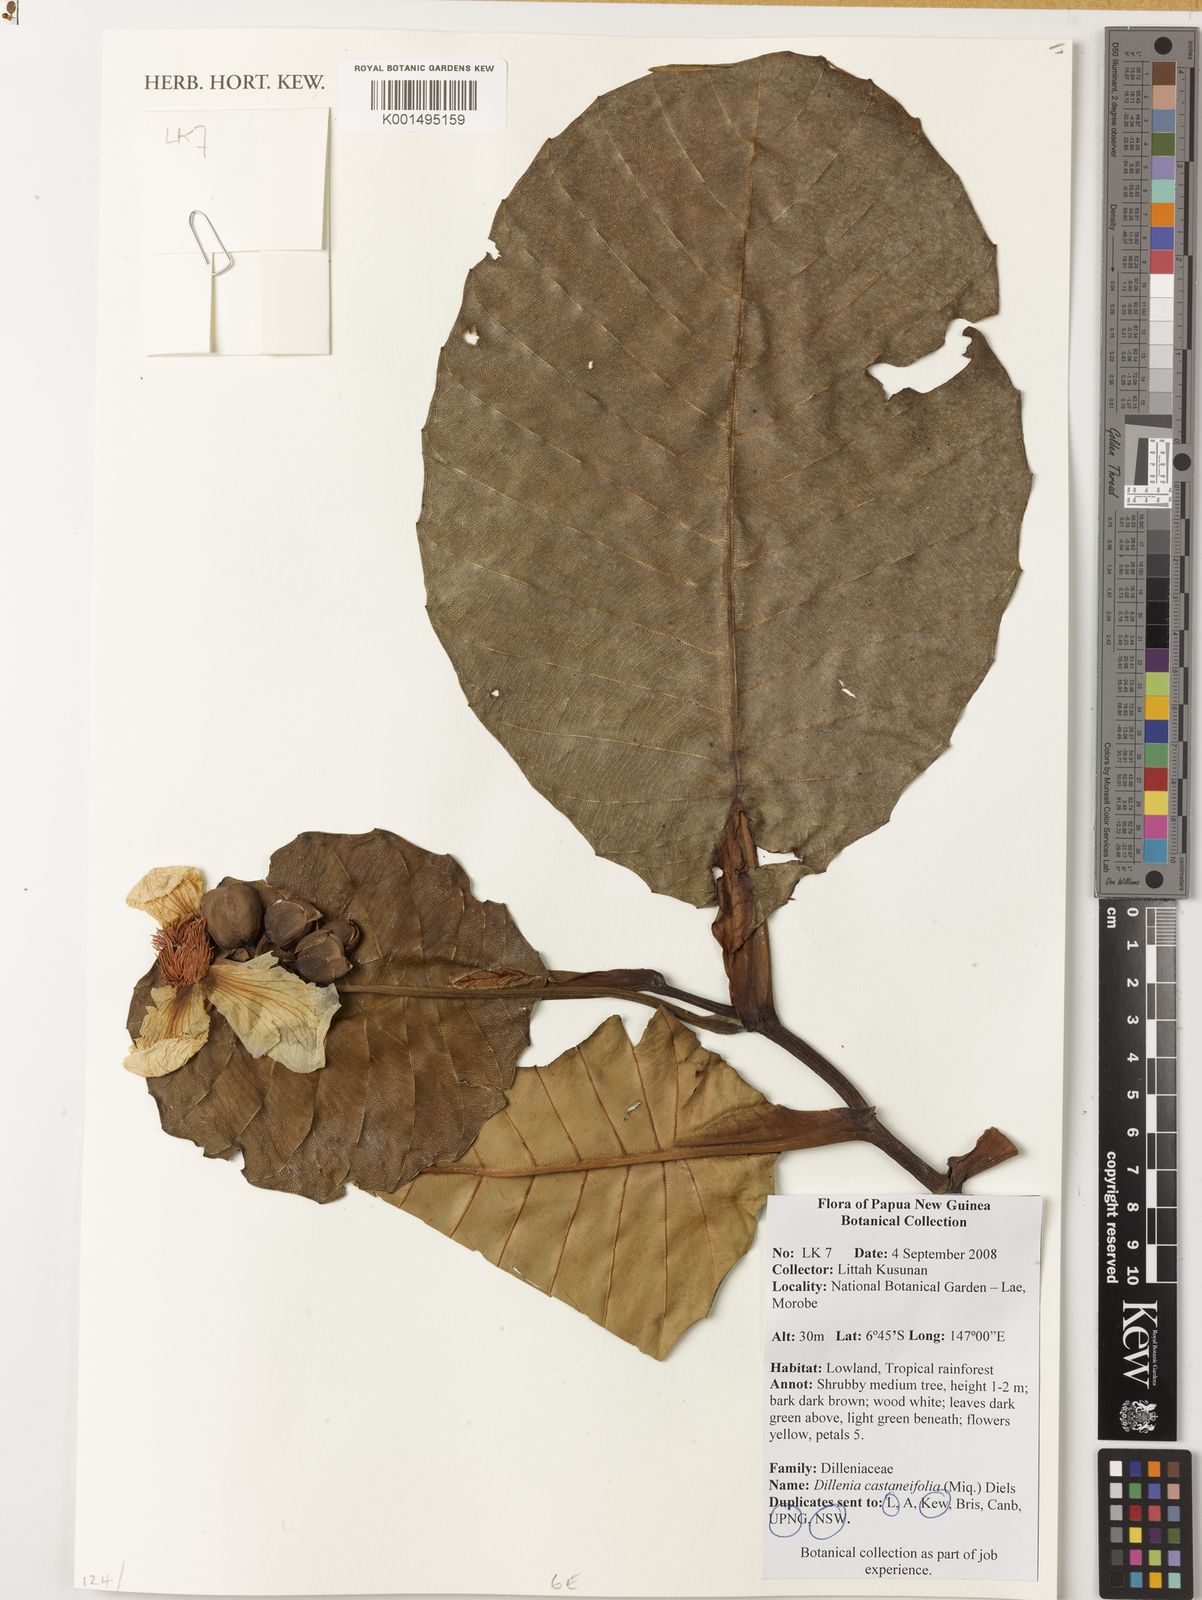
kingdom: Plantae
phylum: Tracheophyta
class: Magnoliopsida
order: Dilleniales
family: Dilleniaceae
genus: Dillenia
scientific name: Dillenia castaneifolia
